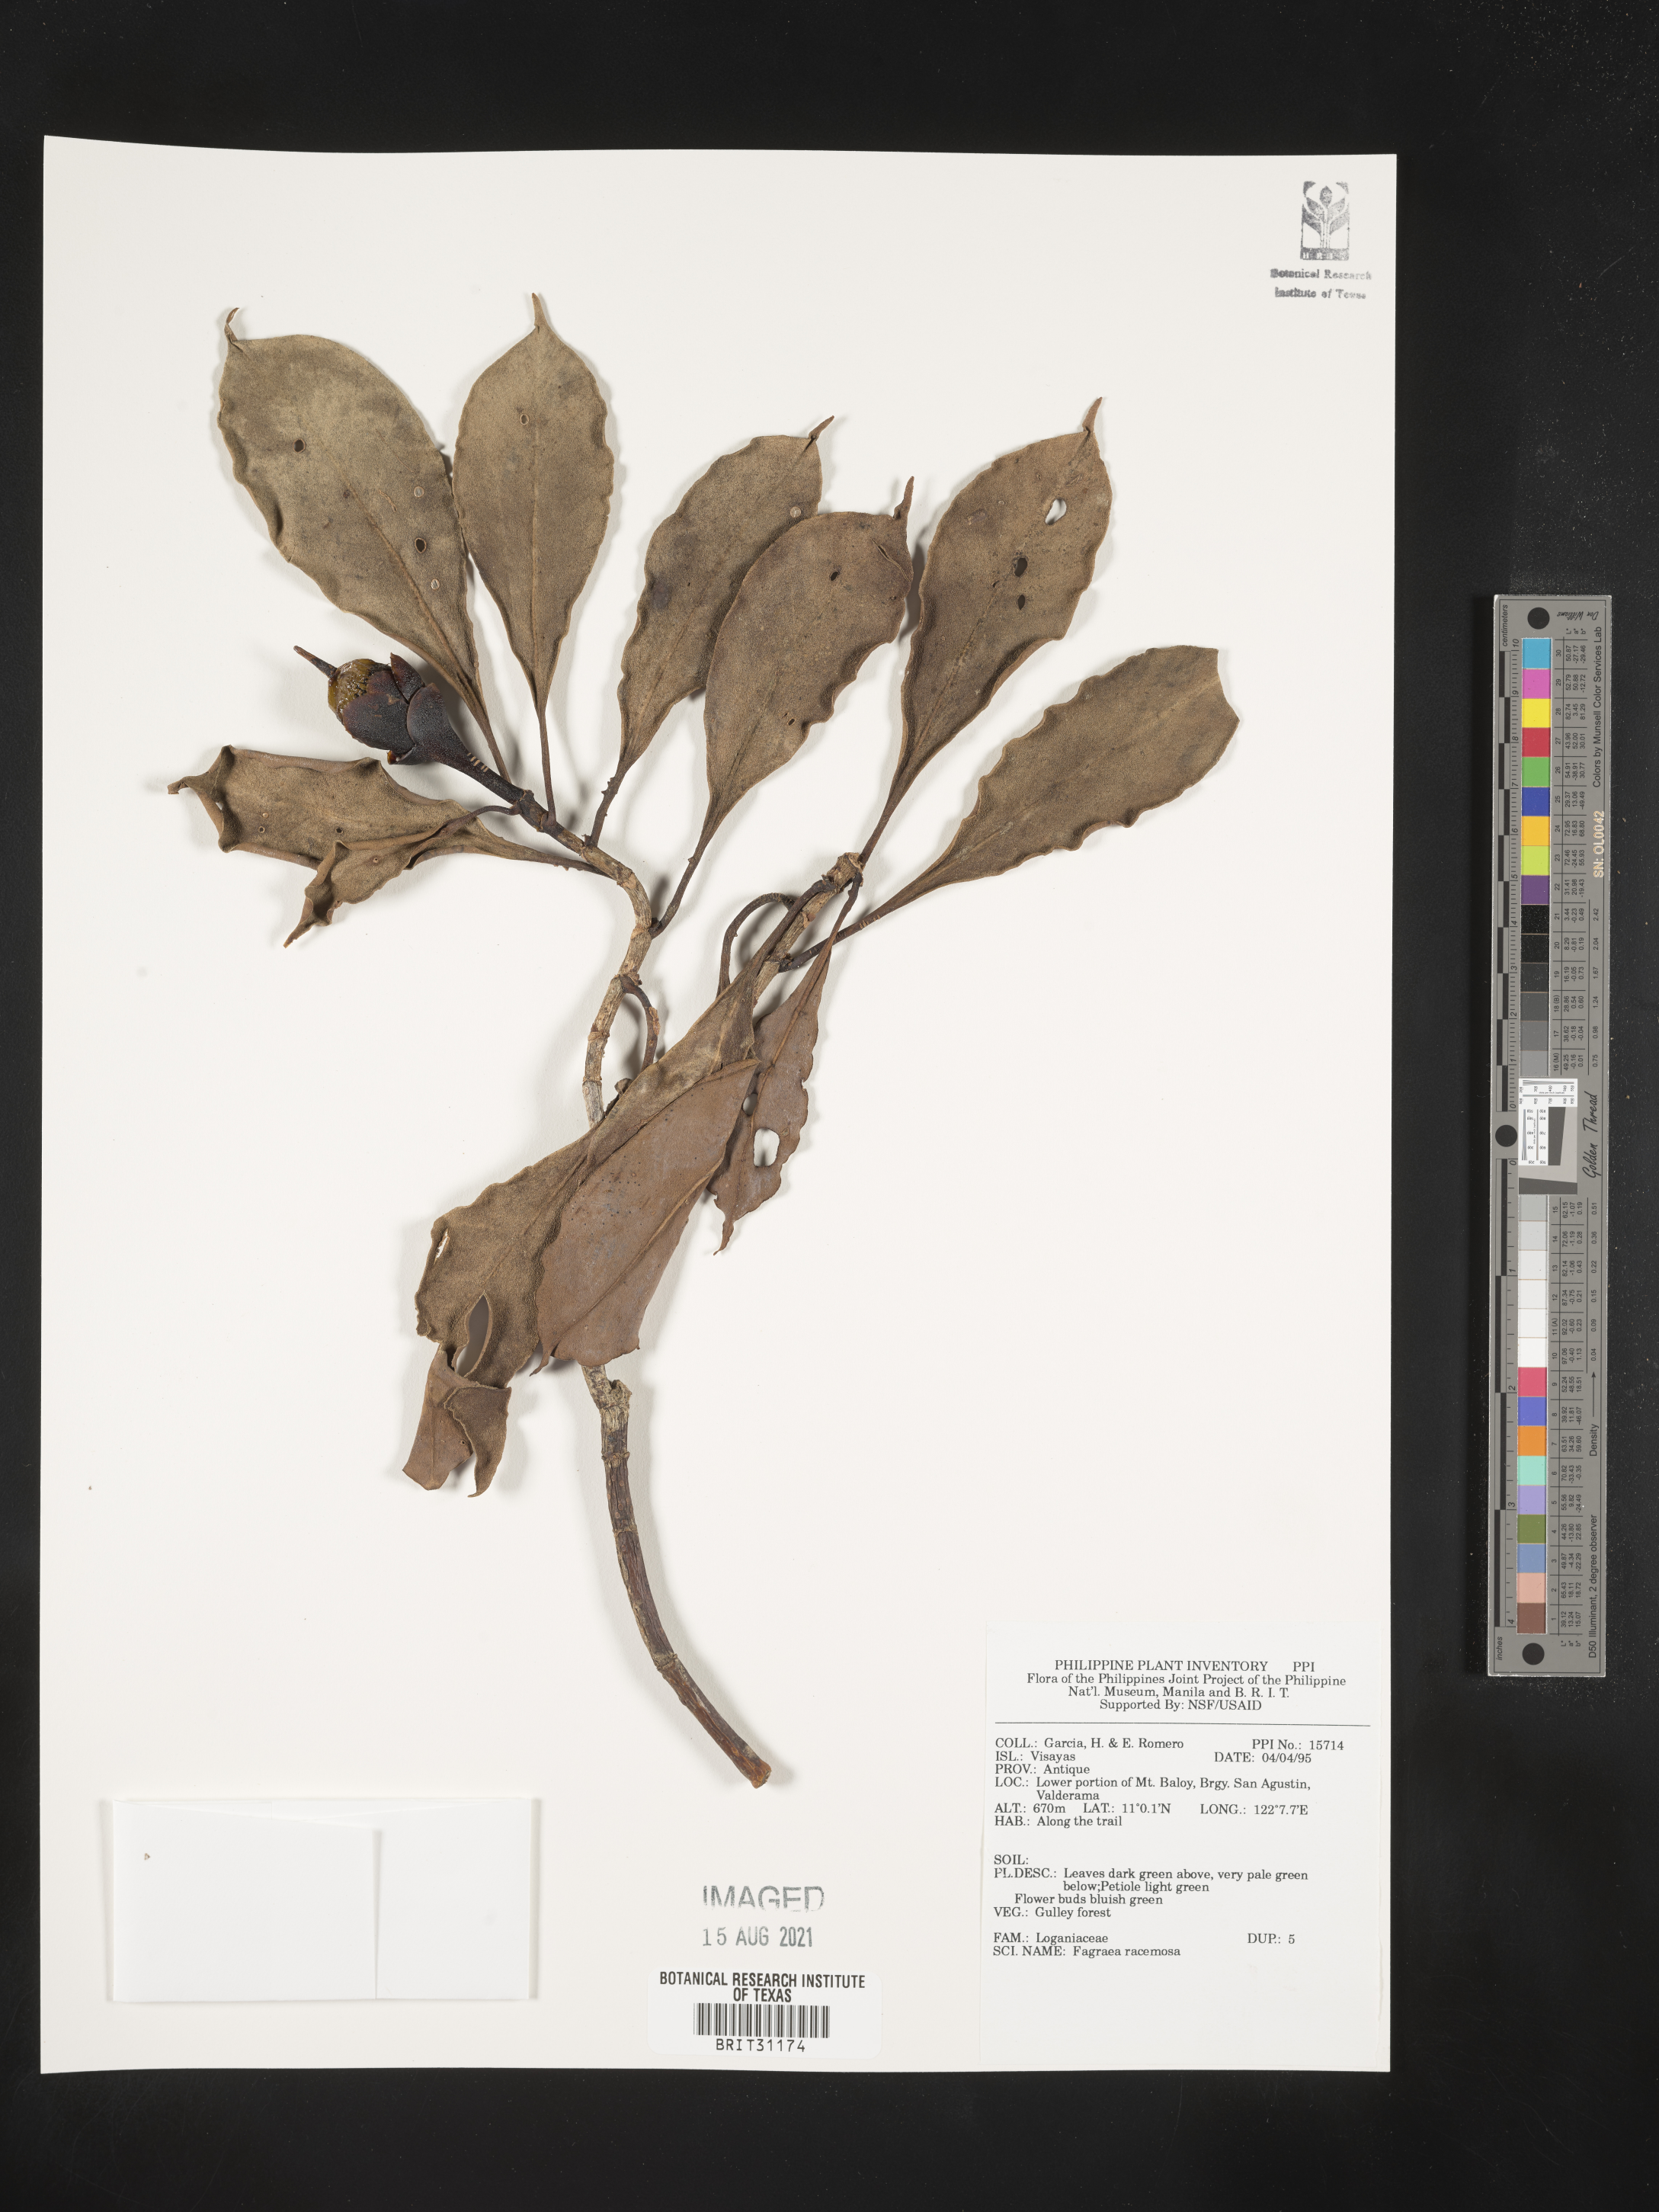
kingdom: Plantae
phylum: Tracheophyta
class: Magnoliopsida
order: Gentianales
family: Gentianaceae
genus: Utania
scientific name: Utania racemosa
